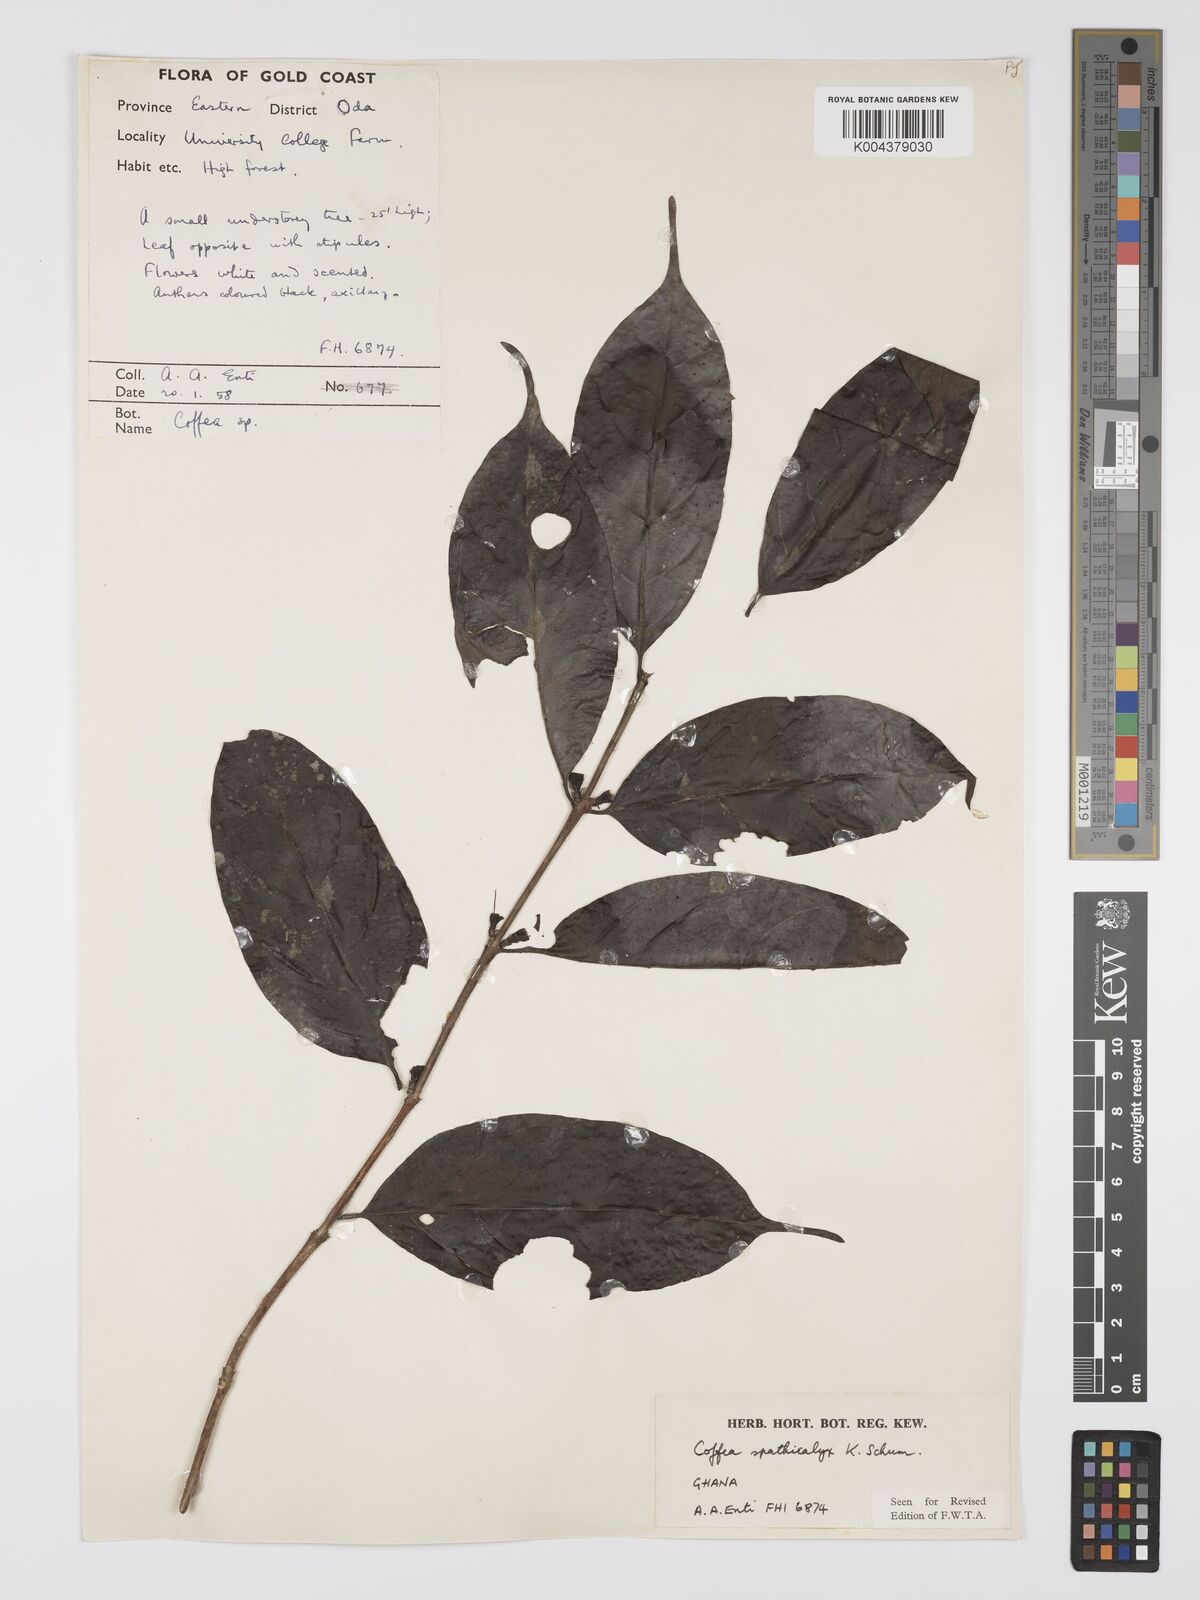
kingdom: Plantae
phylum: Tracheophyta
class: Magnoliopsida
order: Gentianales
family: Rubiaceae
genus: Calycosiphonia
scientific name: Calycosiphonia spathicalyx
